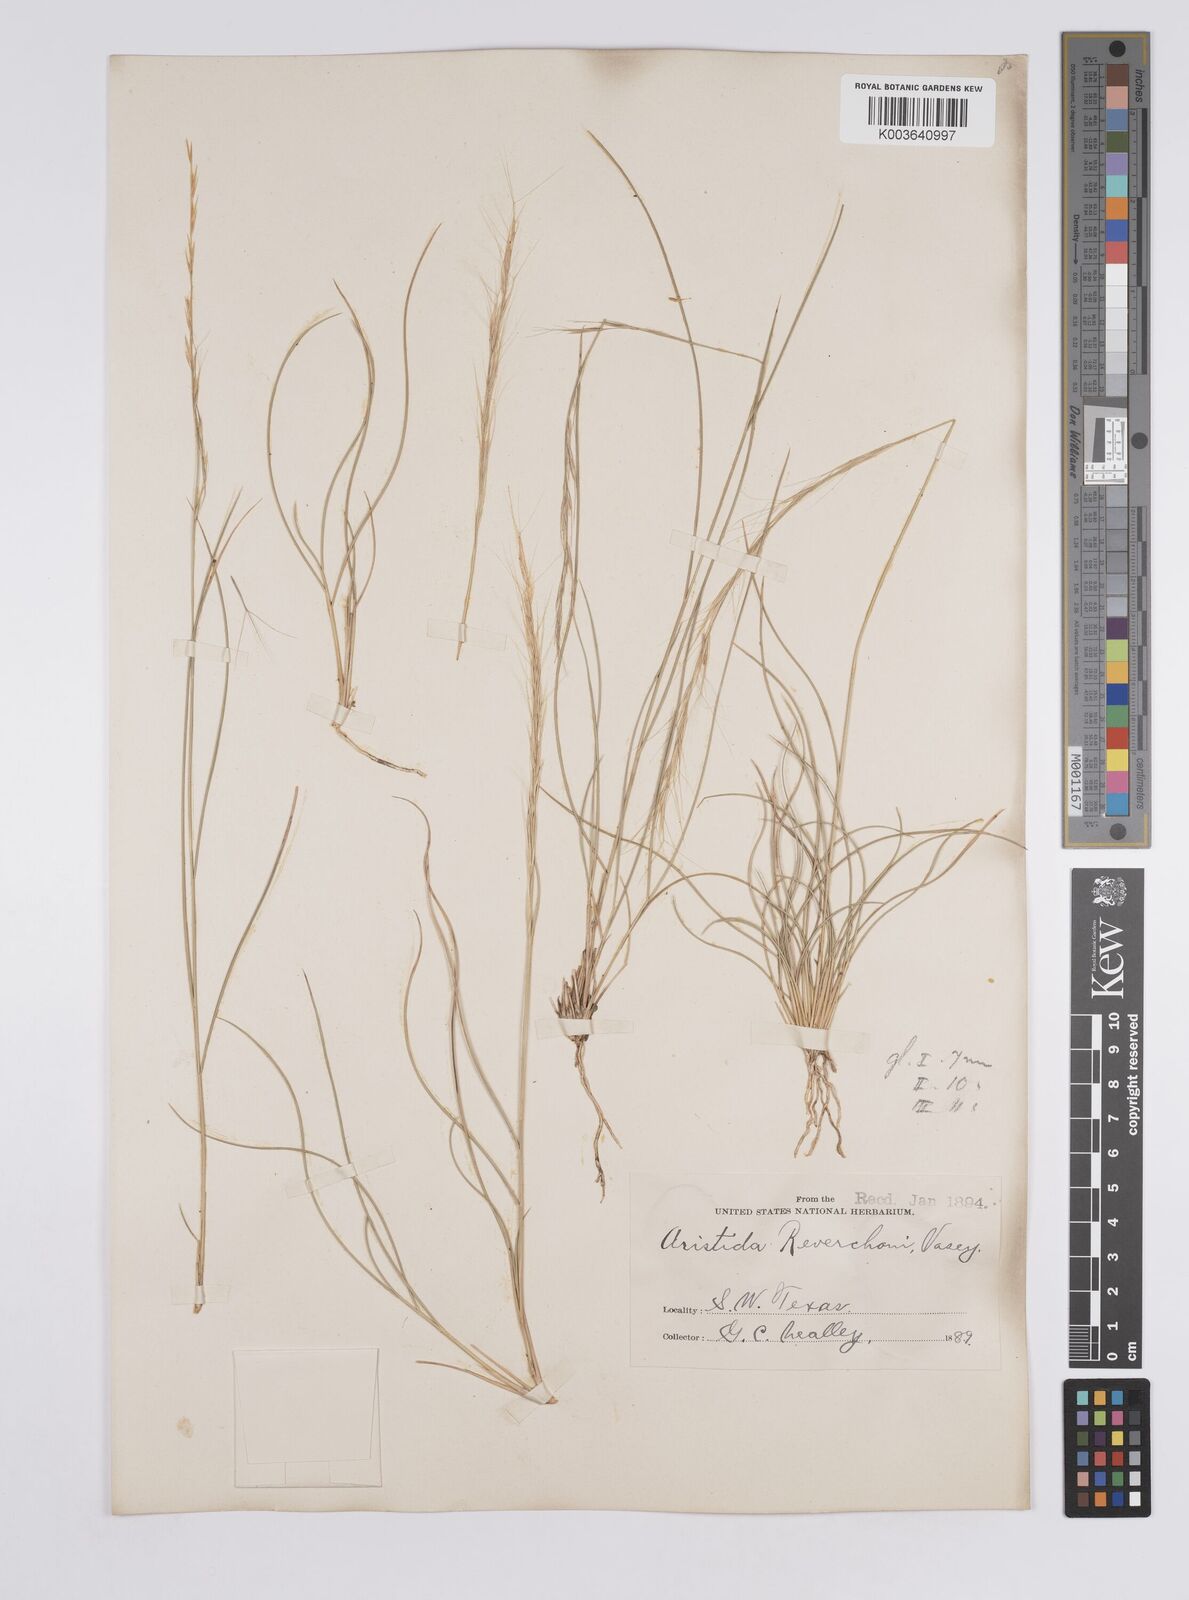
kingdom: Plantae
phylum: Tracheophyta
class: Liliopsida
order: Poales
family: Poaceae
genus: Aristida
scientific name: Aristida purpurea
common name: Purple threeawn
